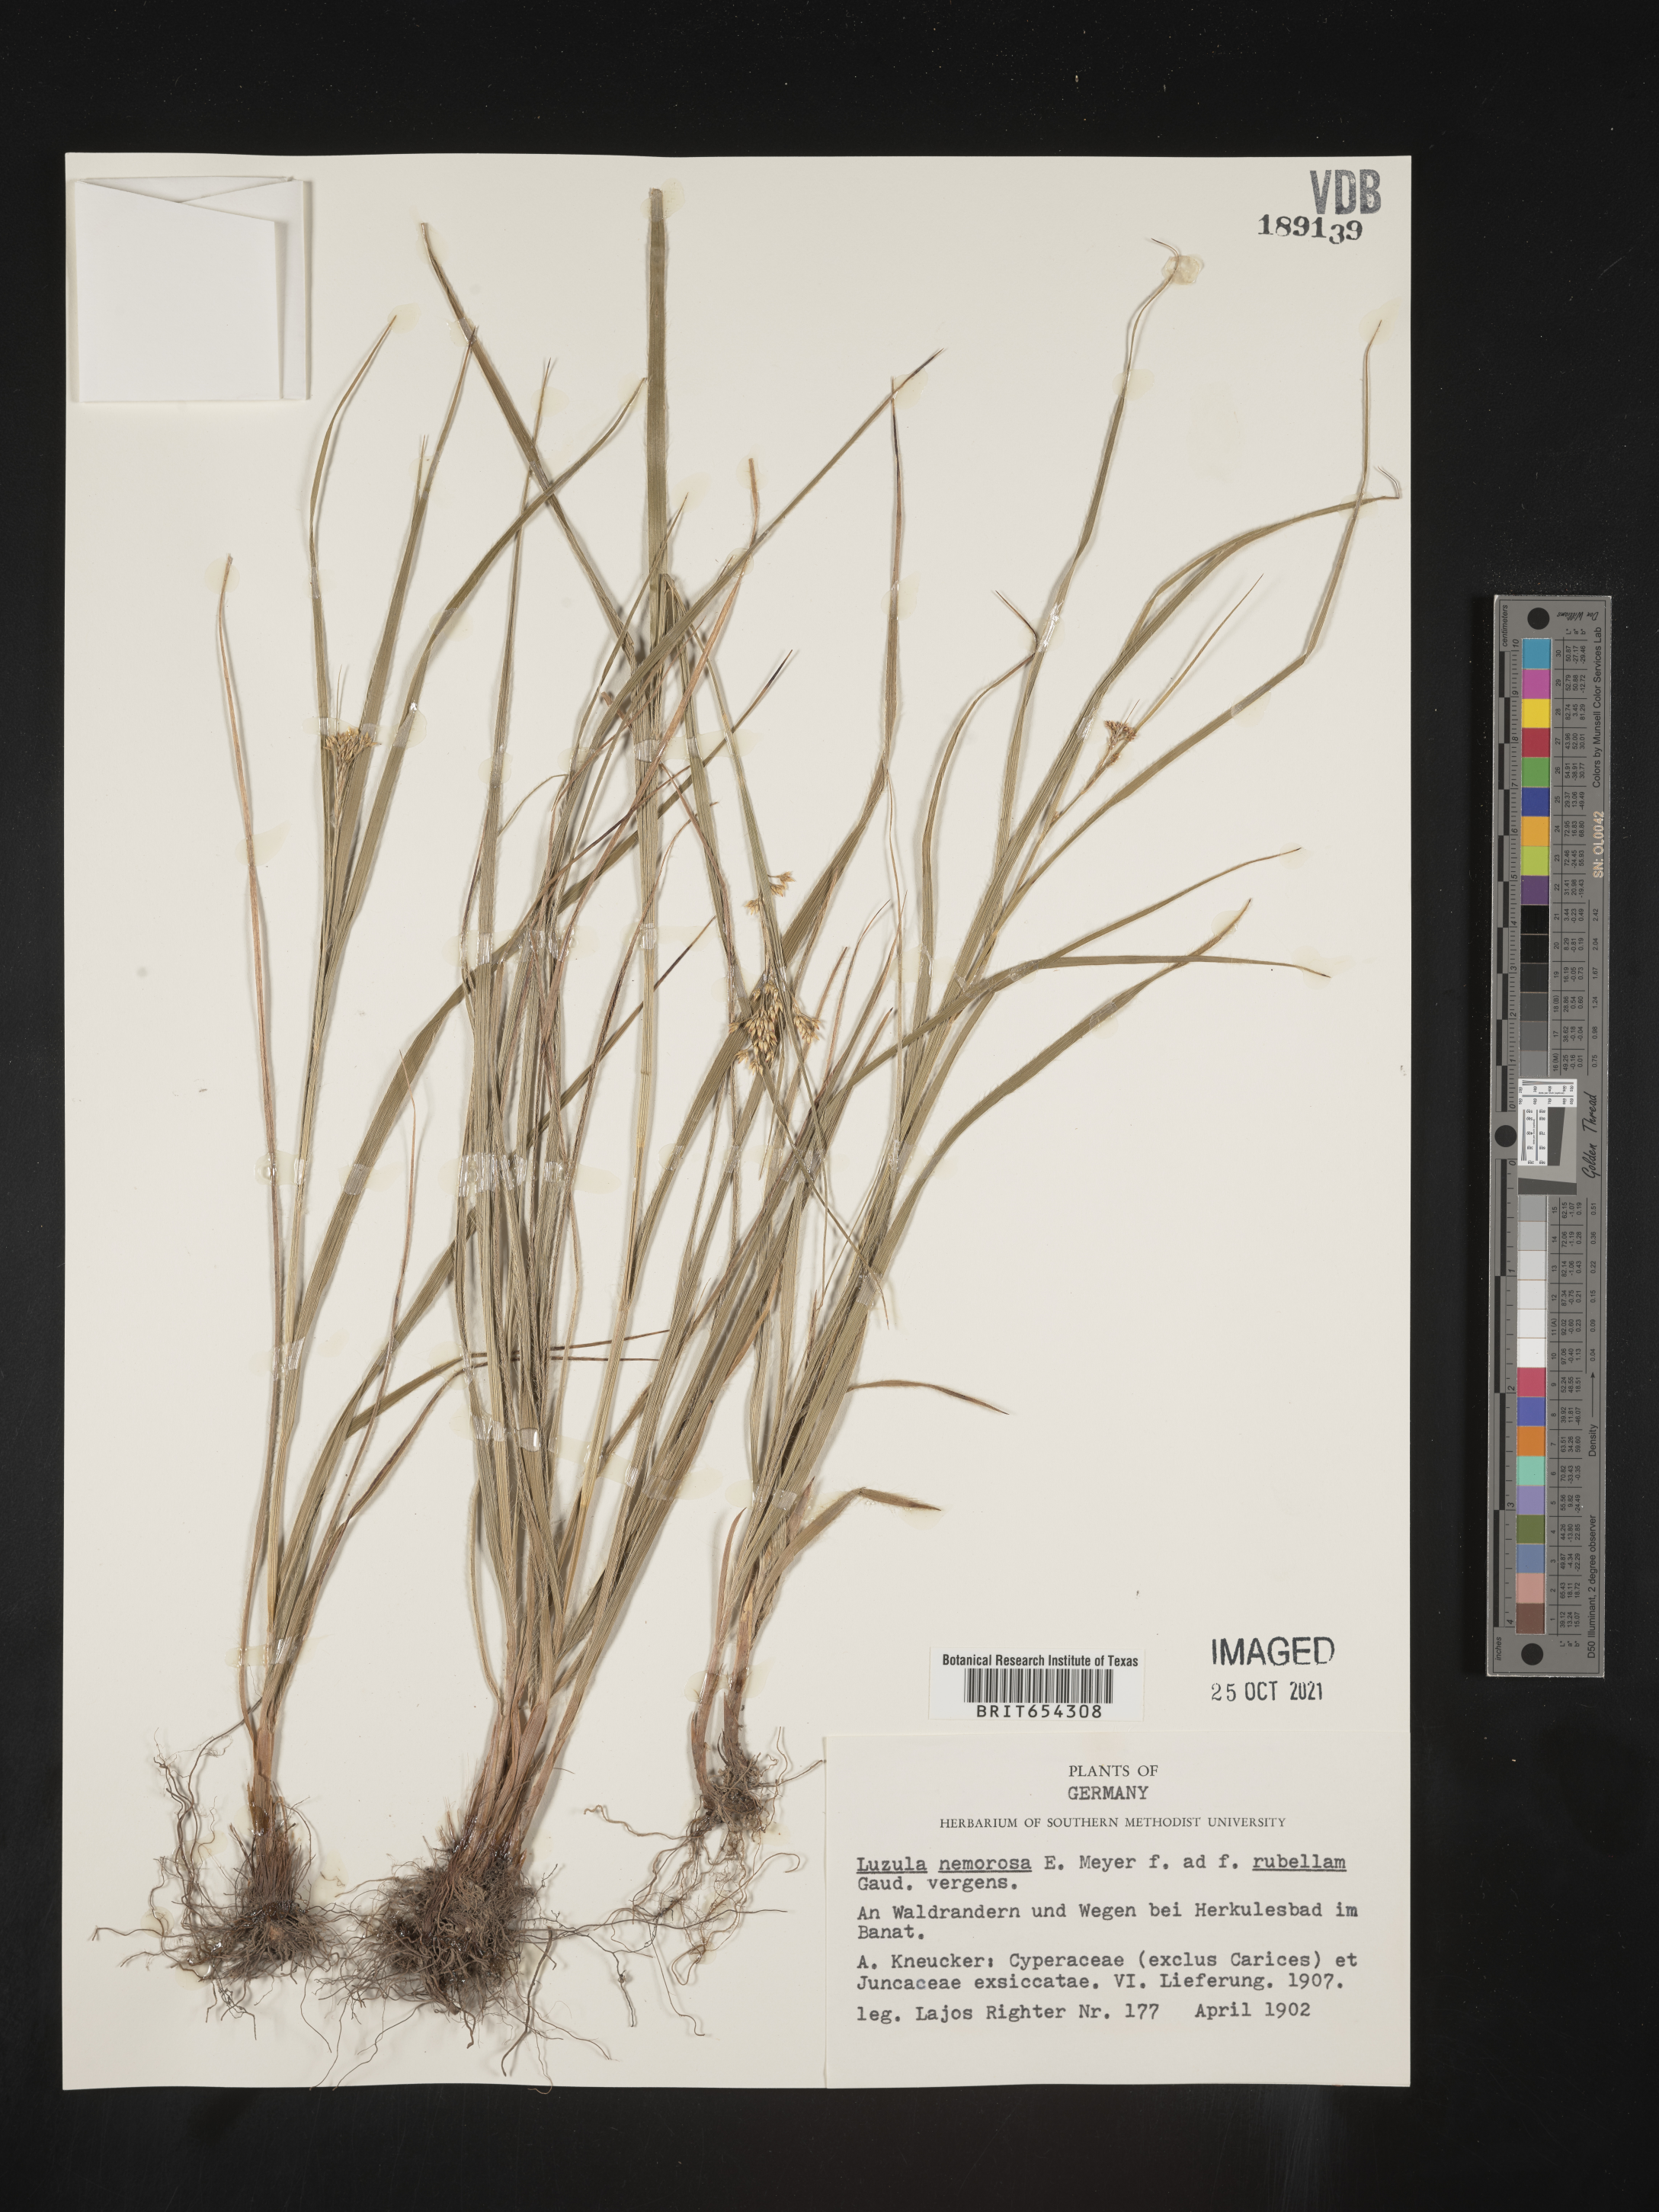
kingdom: Plantae
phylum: Tracheophyta
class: Liliopsida
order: Poales
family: Juncaceae
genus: Luzula
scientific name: Luzula
